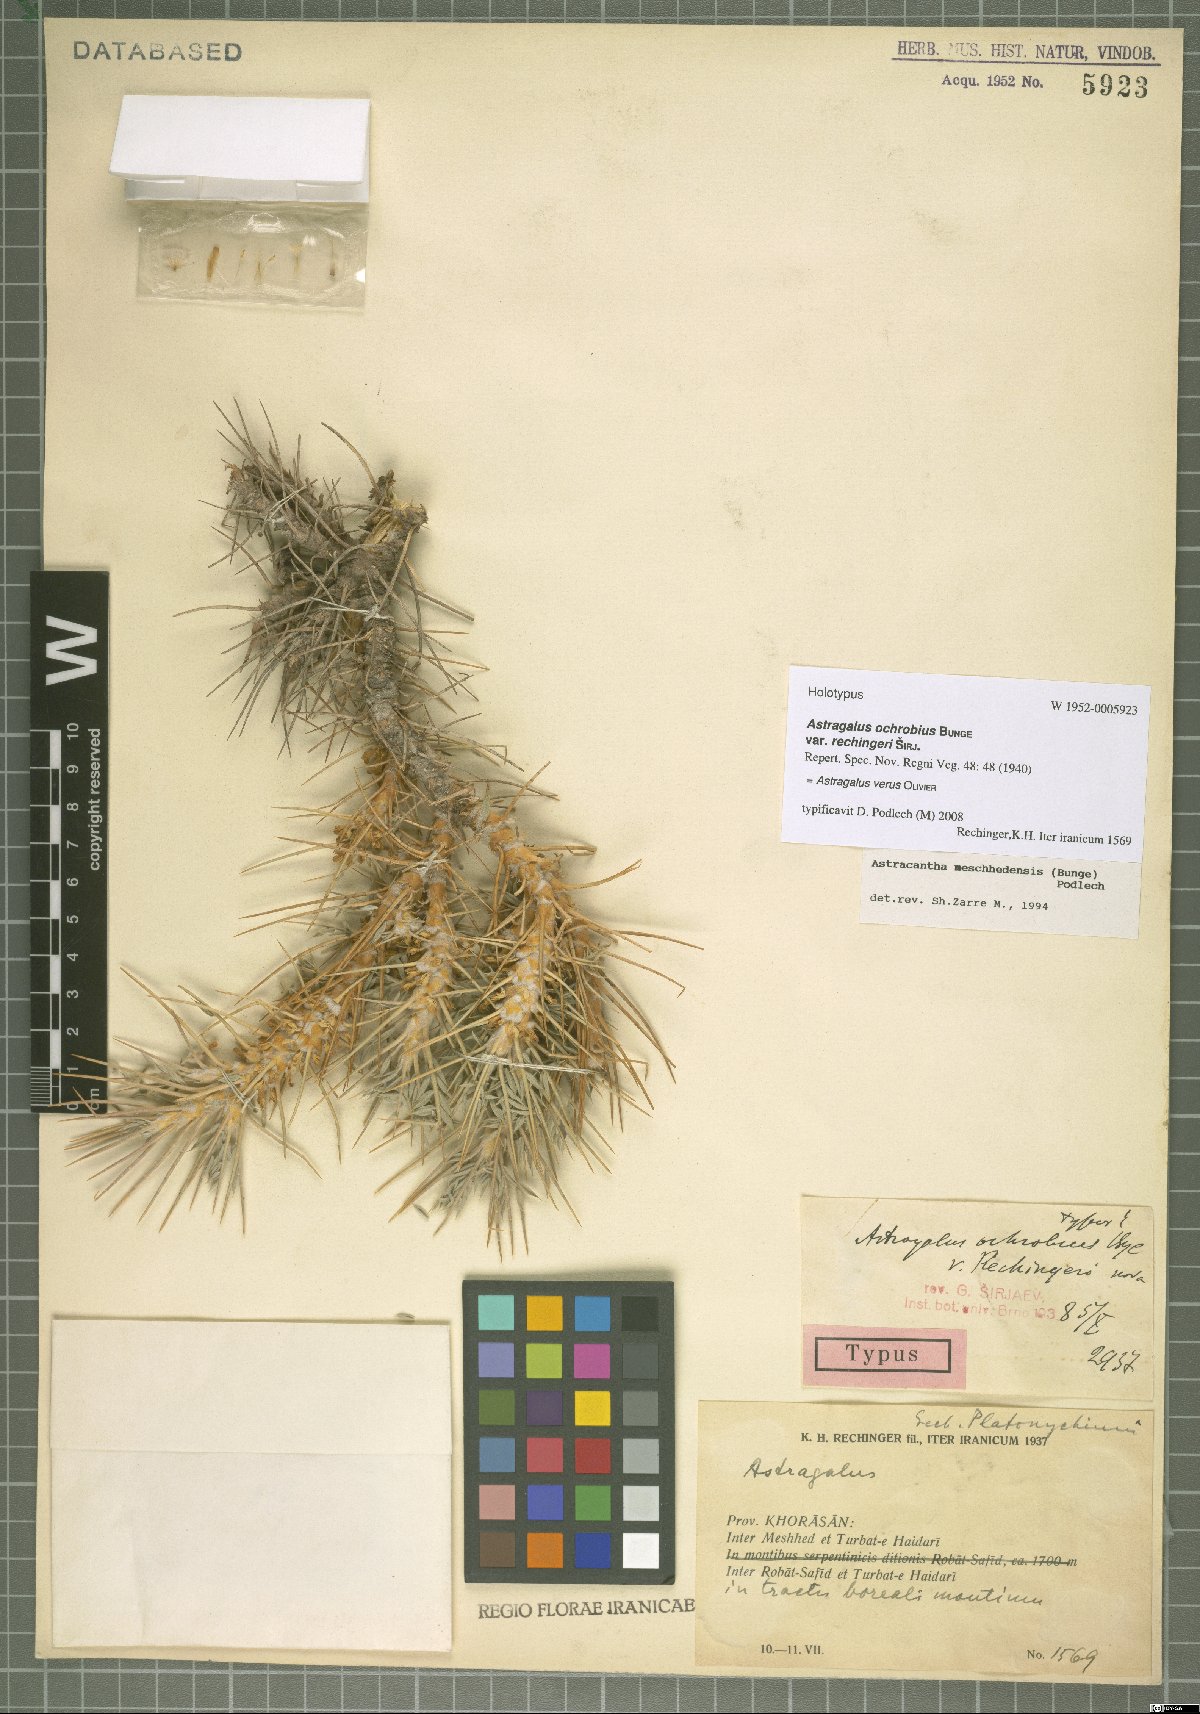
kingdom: Plantae
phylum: Tracheophyta
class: Magnoliopsida
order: Fabales
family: Fabaceae
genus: Astragalus
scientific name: Astragalus verus
